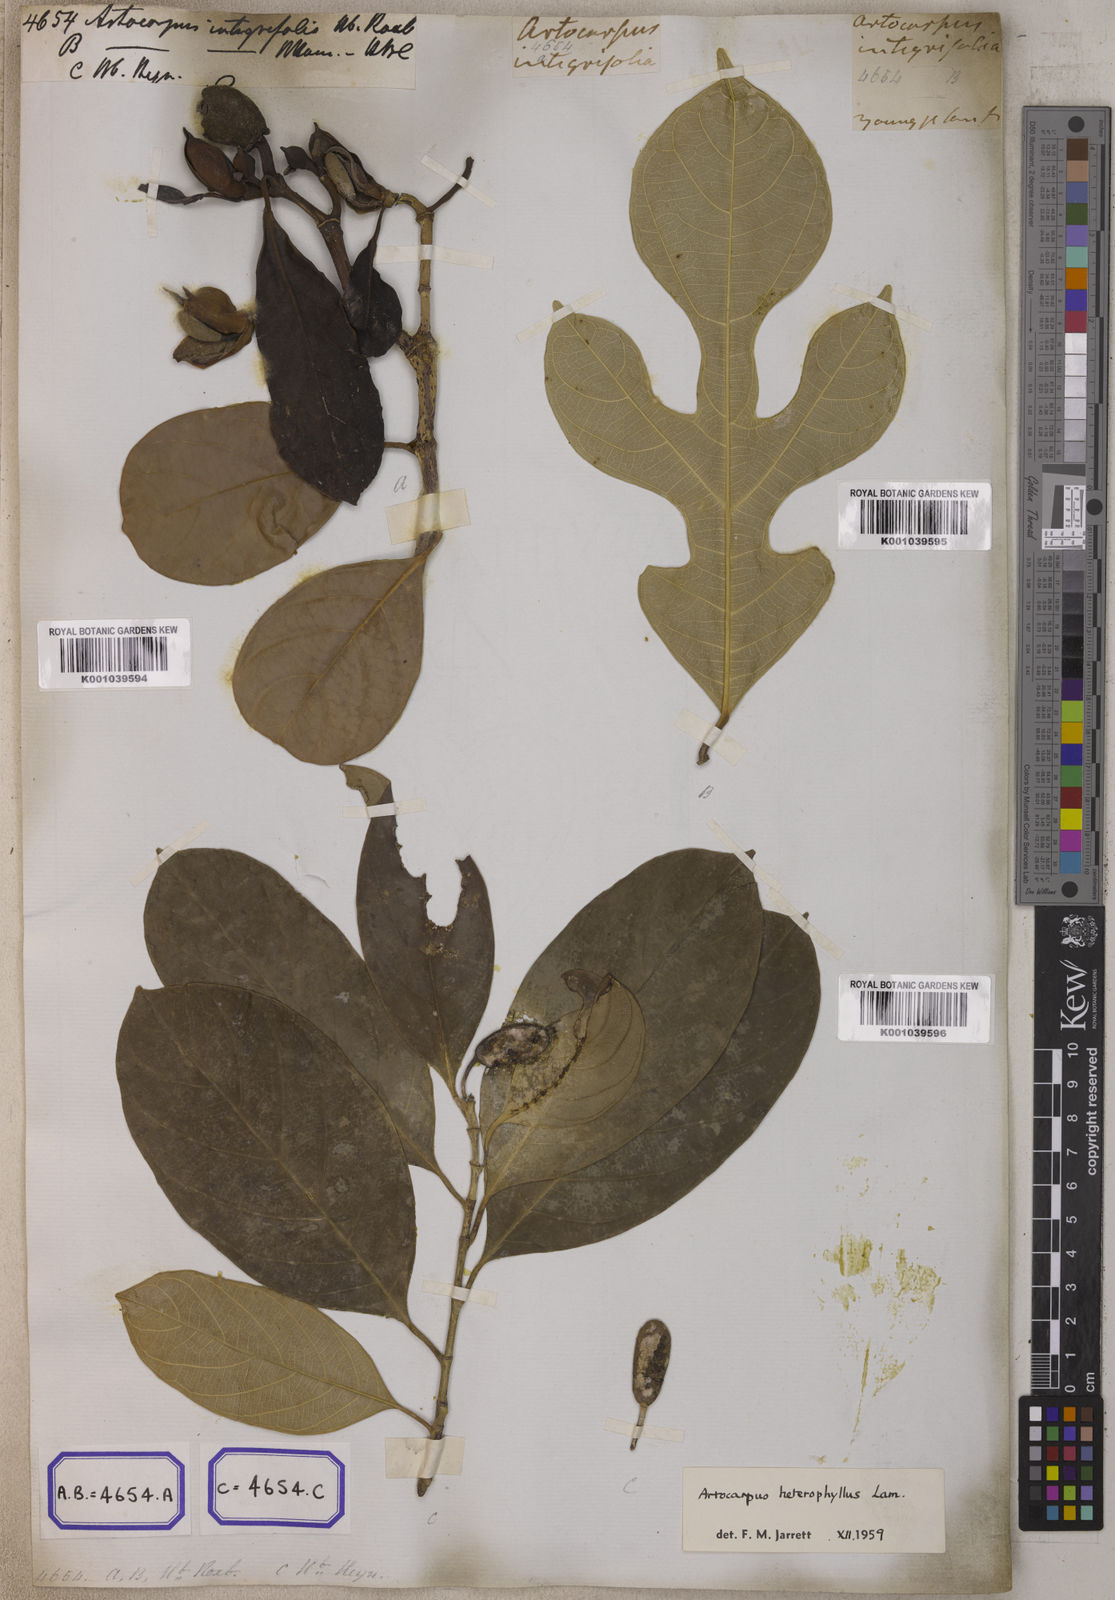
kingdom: Plantae
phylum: Tracheophyta
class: Magnoliopsida
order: Rosales
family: Moraceae
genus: Artocarpus
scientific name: Artocarpus integer
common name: Chempedak
